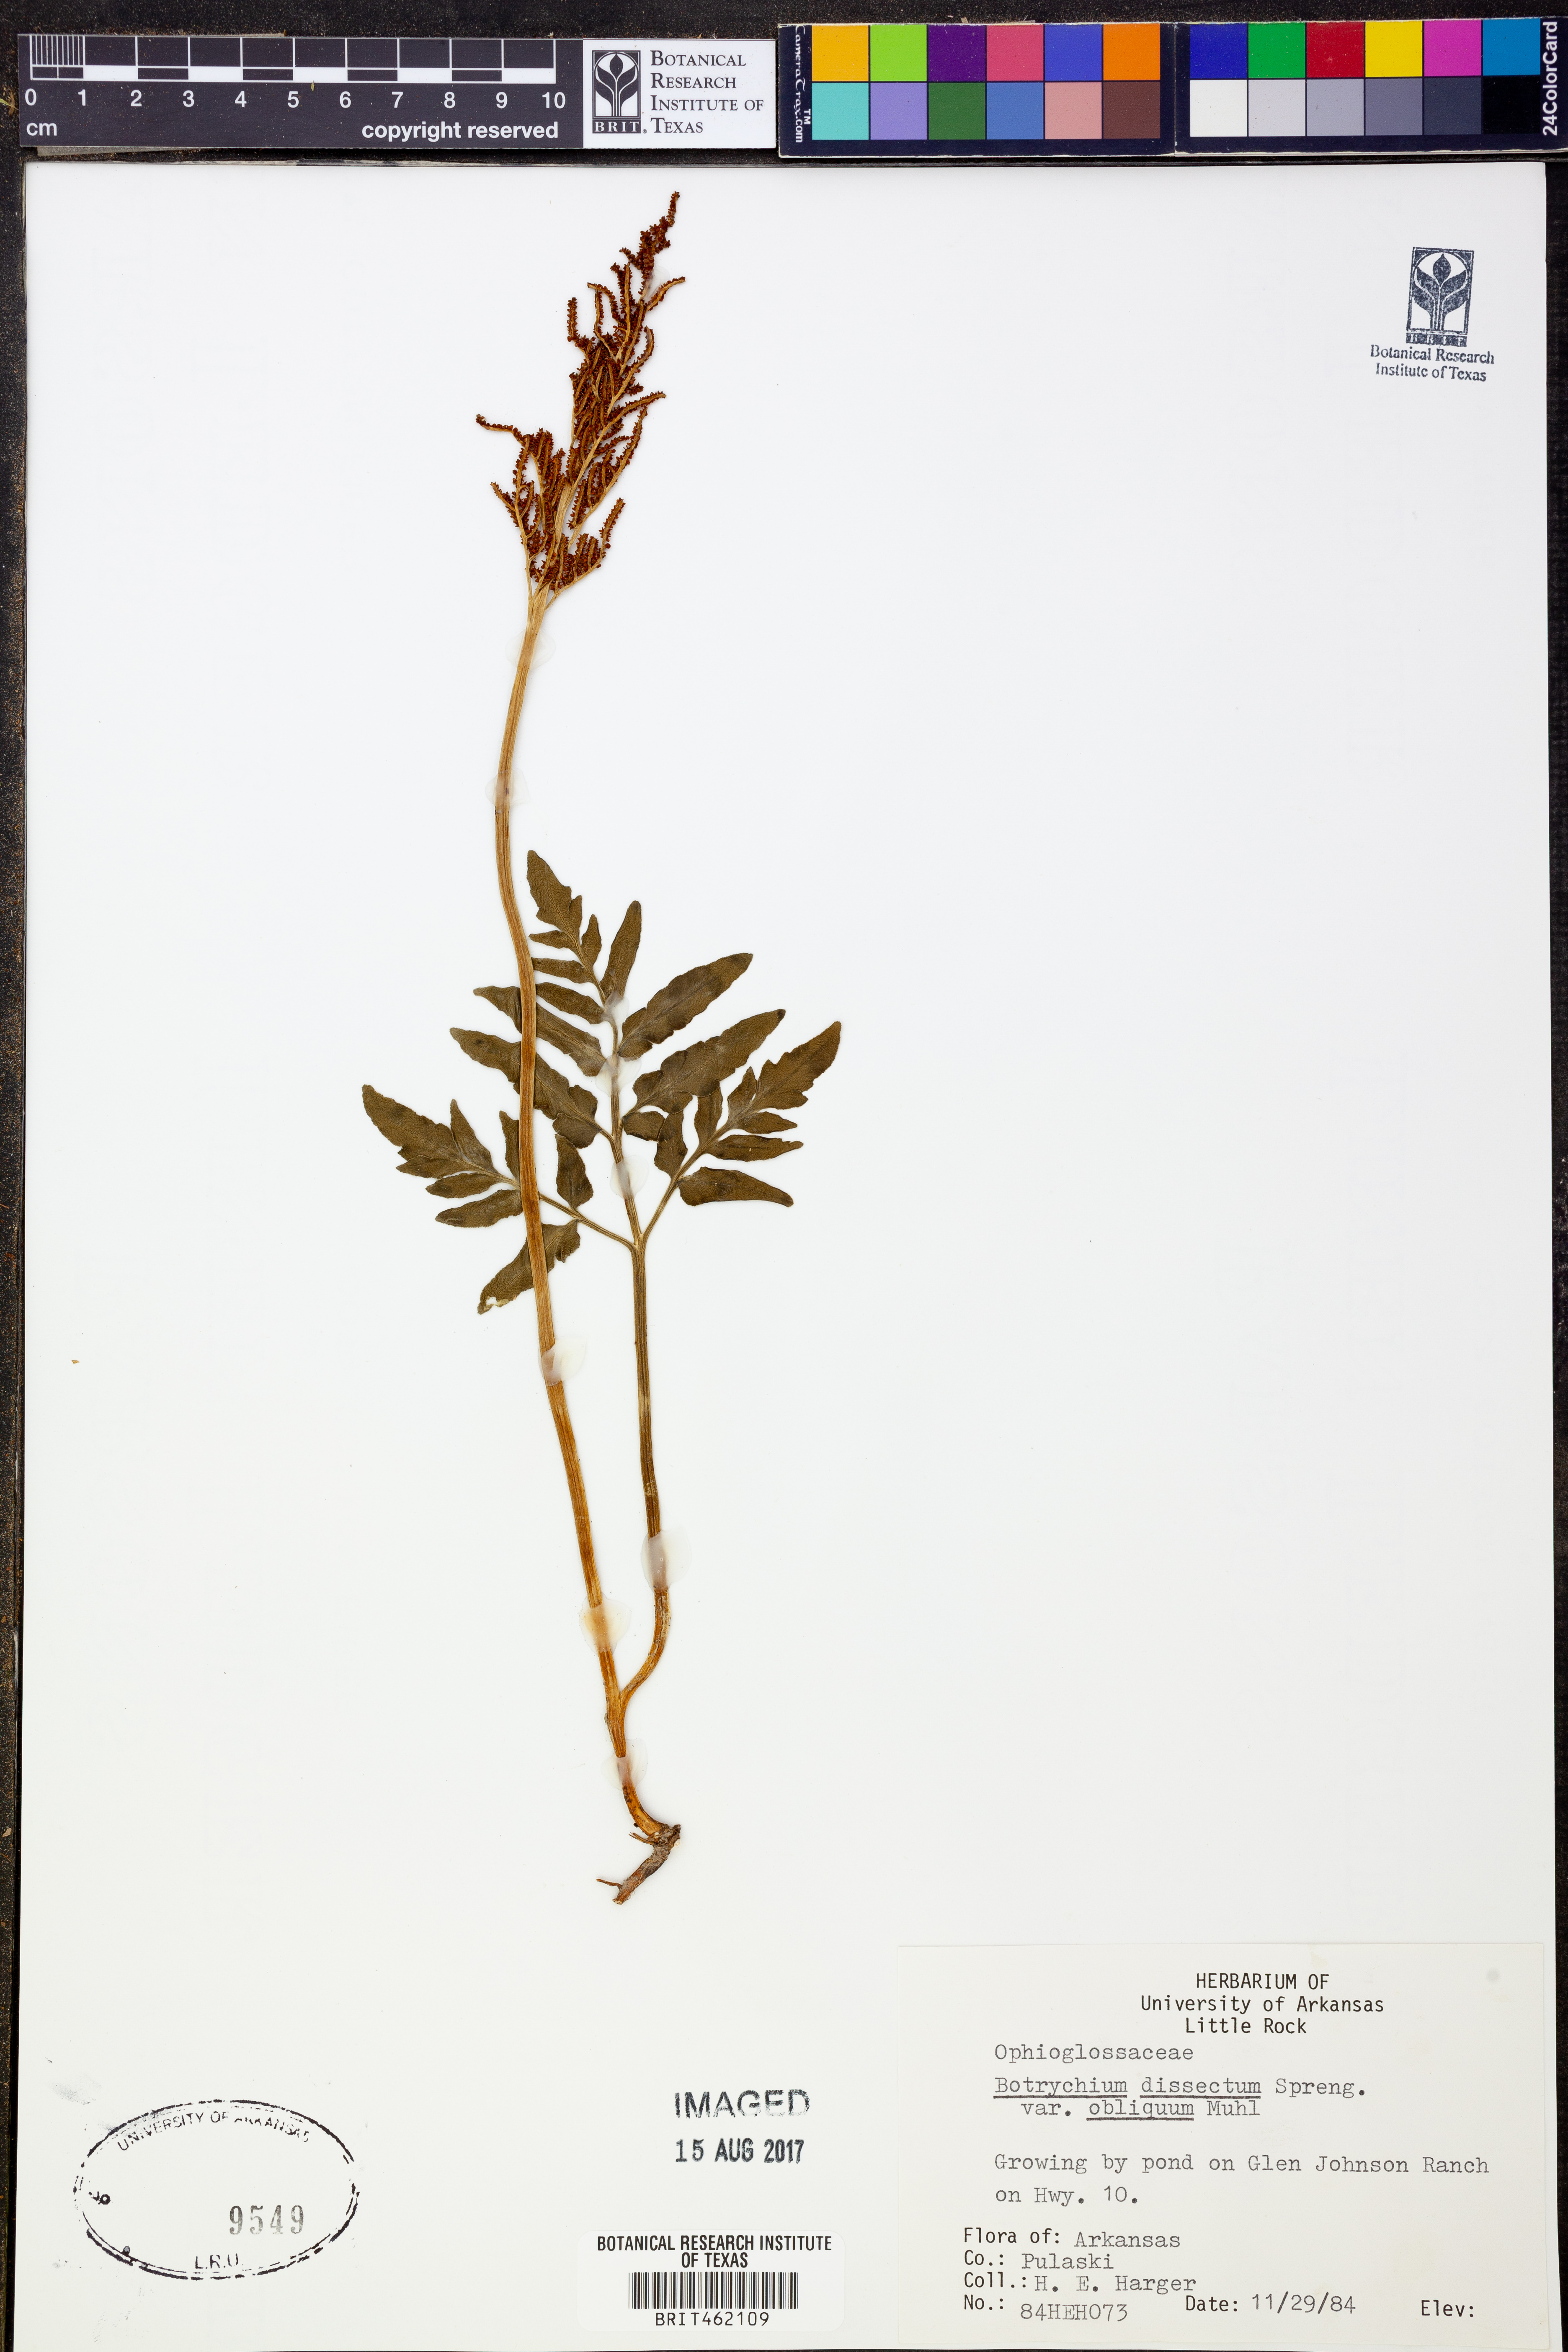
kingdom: Plantae
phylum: Tracheophyta
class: Polypodiopsida
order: Ophioglossales
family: Ophioglossaceae
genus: Sceptridium
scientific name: Sceptridium dissectum
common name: Cut-leaved grapefern
